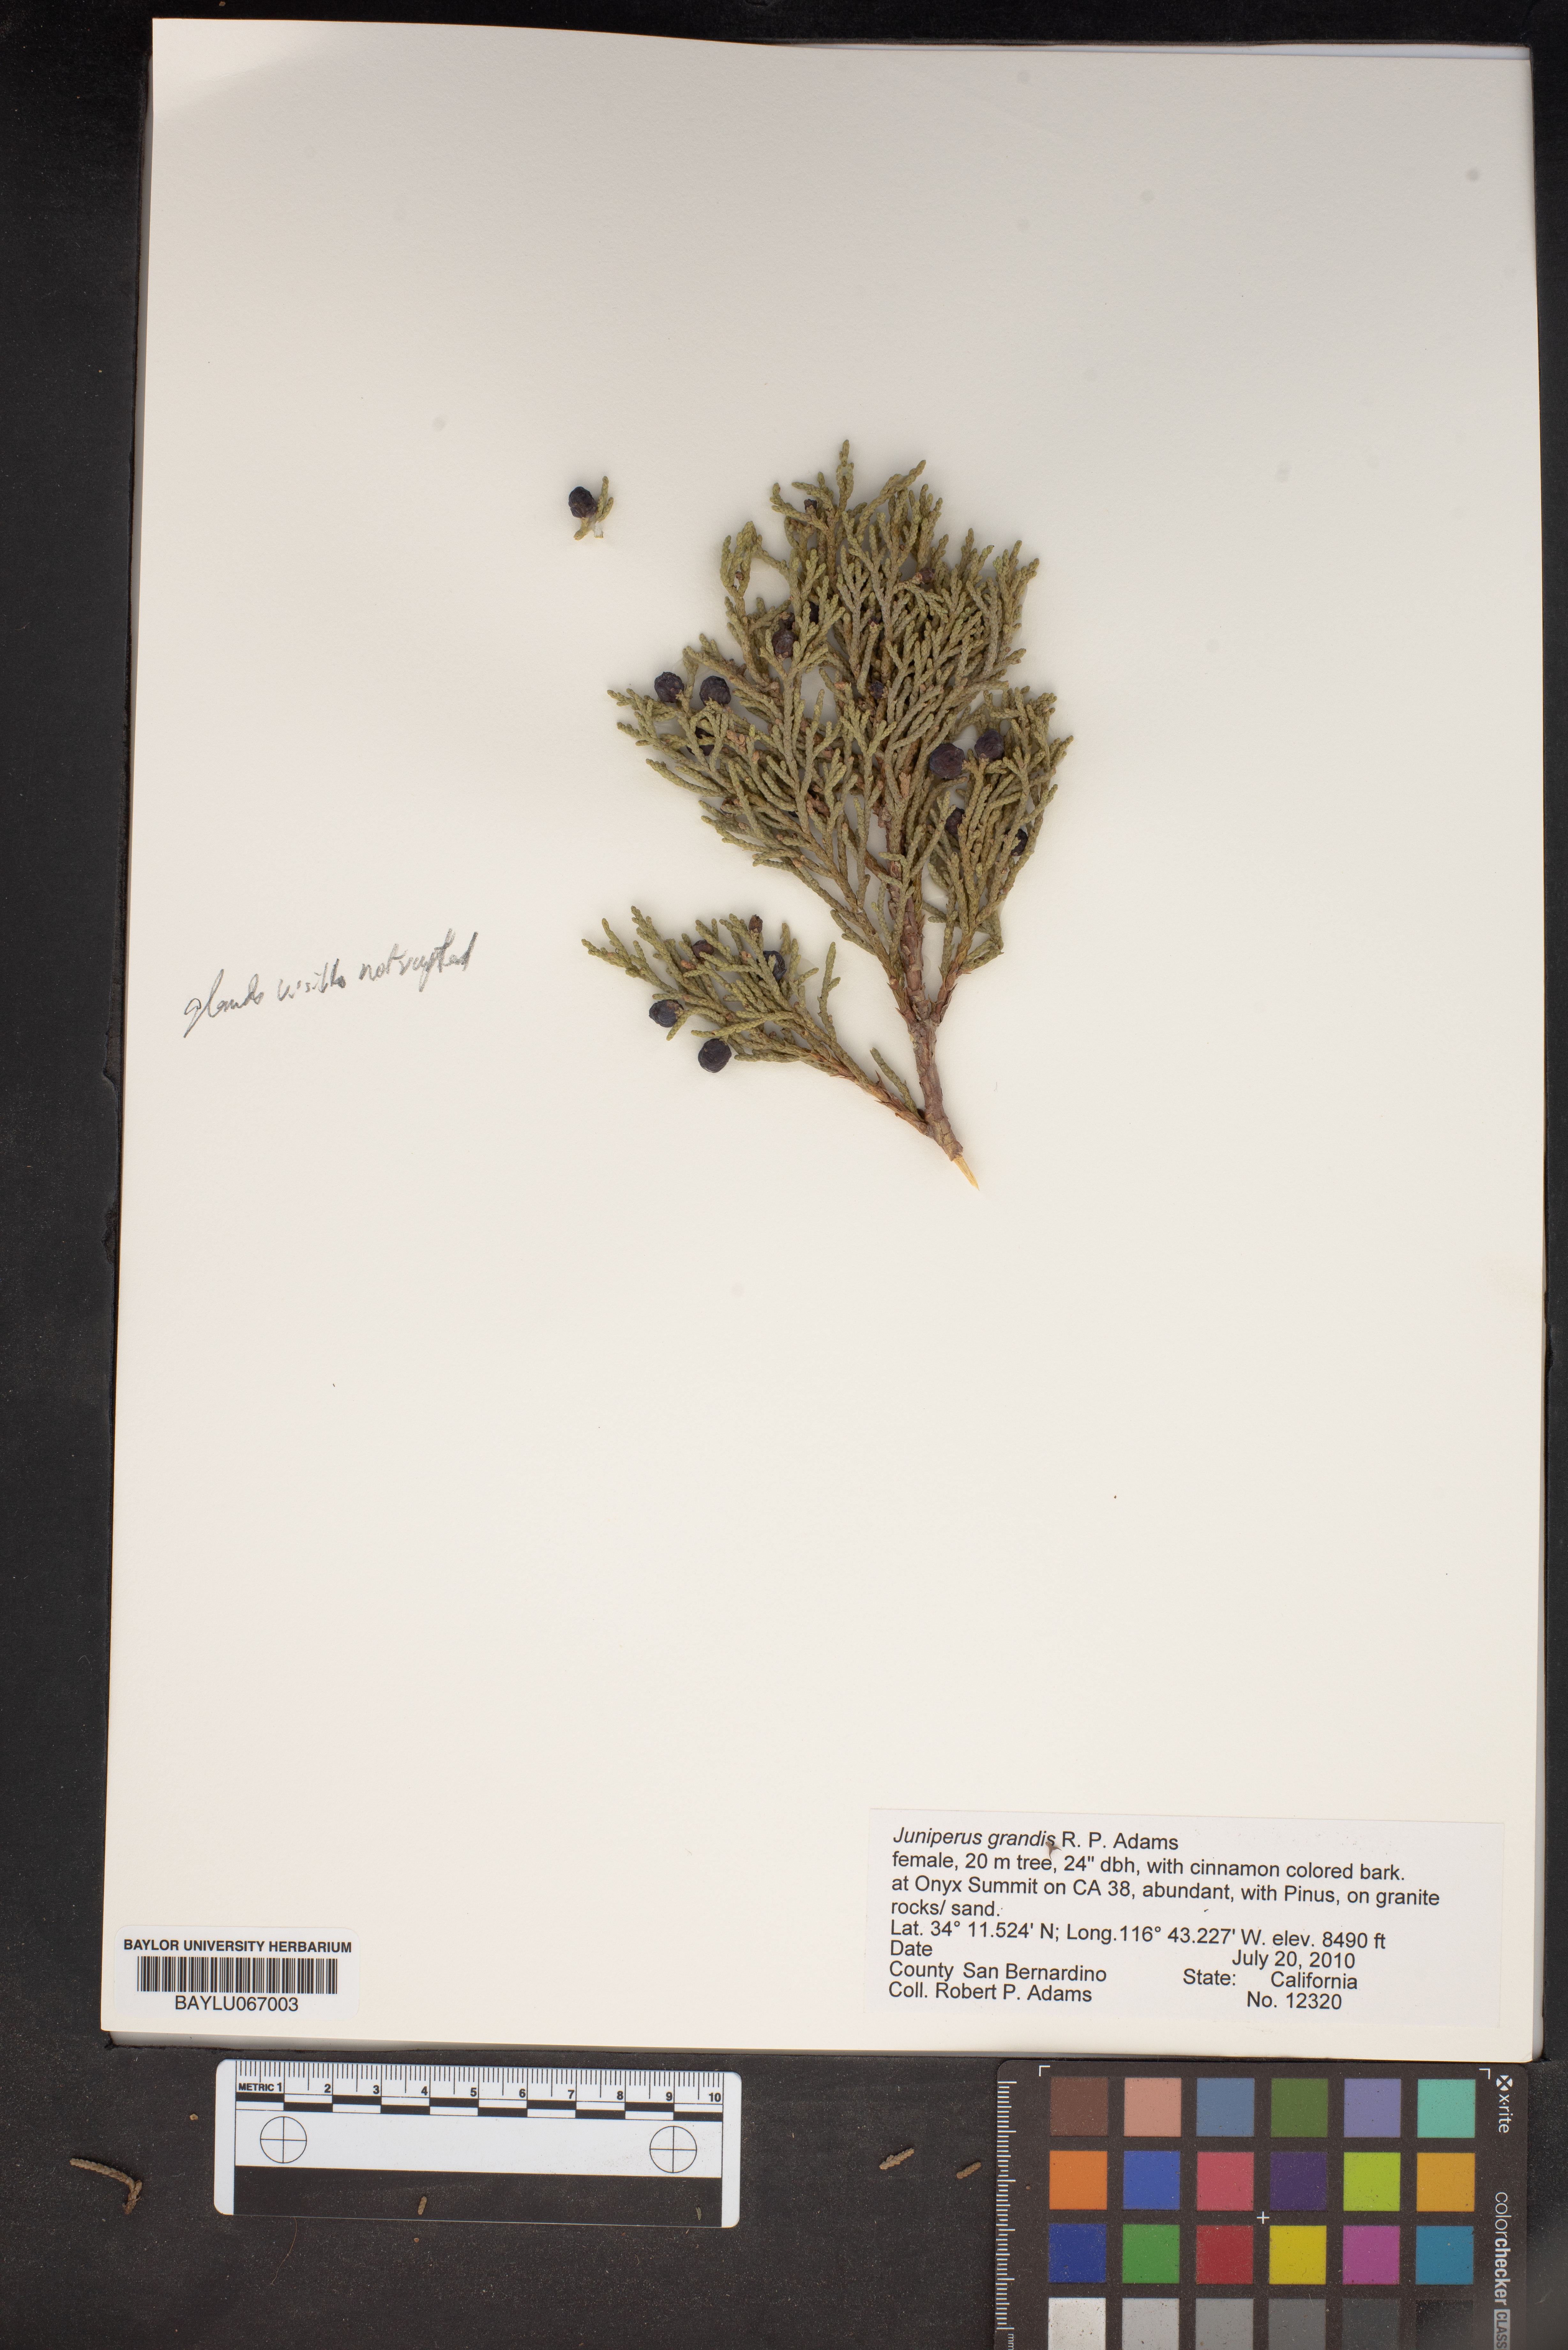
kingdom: Plantae
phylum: Tracheophyta
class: Pinopsida
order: Pinales
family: Cupressaceae
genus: Juniperus
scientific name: Juniperus occidentalis
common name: Western juniper
